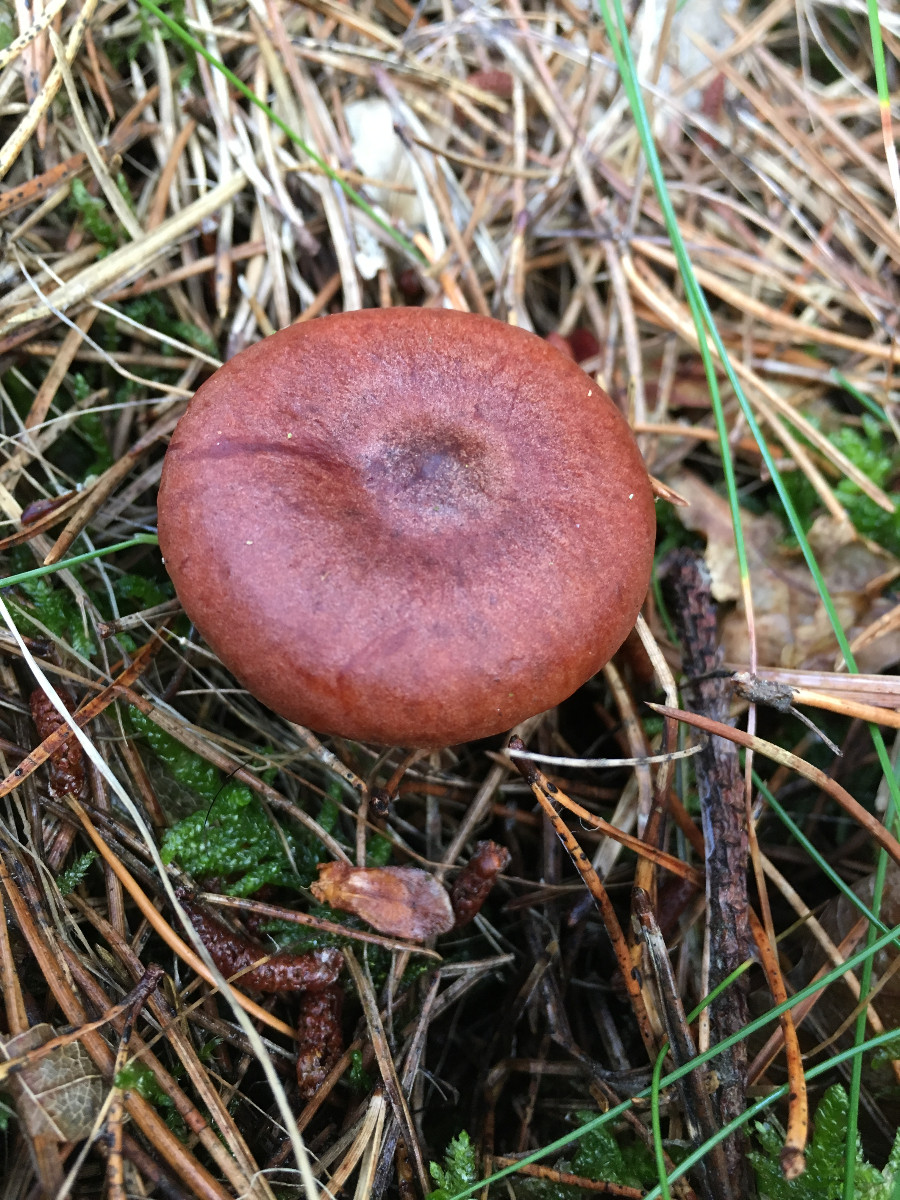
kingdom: Fungi
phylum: Basidiomycota
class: Agaricomycetes
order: Russulales
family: Russulaceae
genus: Lactarius
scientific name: Lactarius rufus
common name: rødbrun mælkehat
